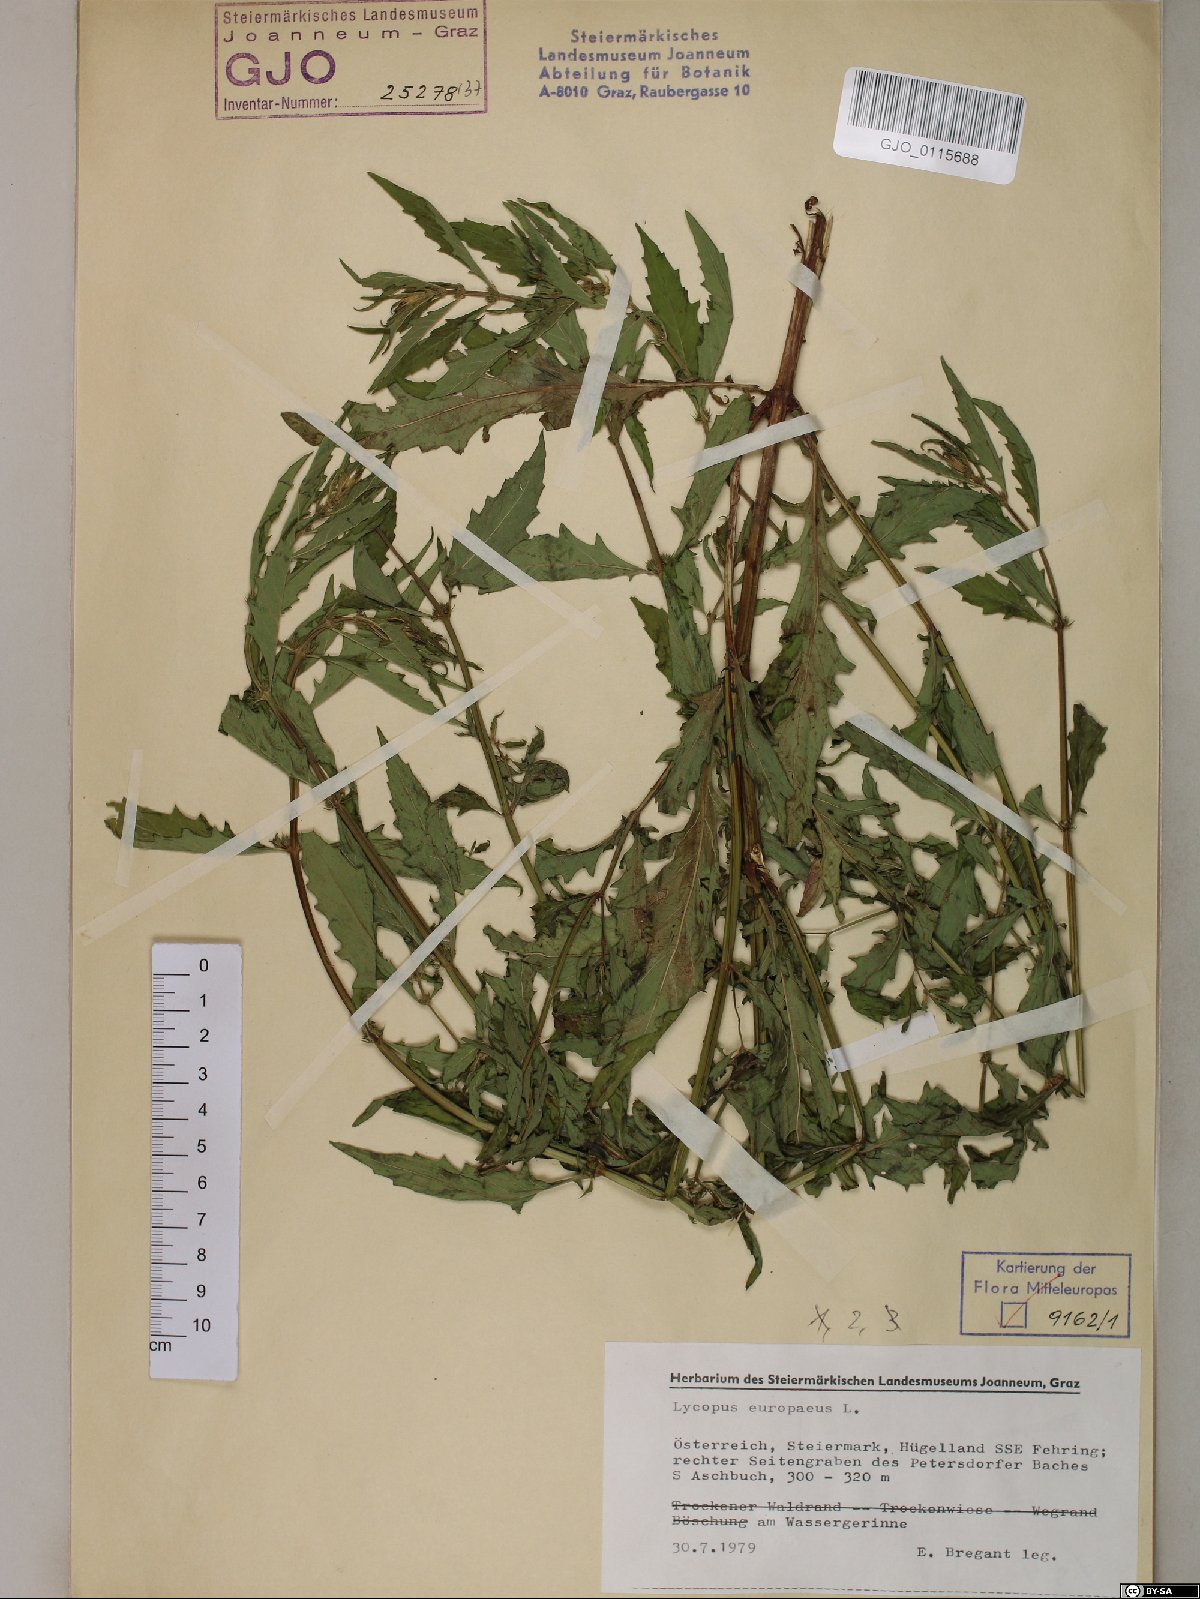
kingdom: Plantae
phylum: Tracheophyta
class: Magnoliopsida
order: Lamiales
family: Lamiaceae
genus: Lycopus
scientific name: Lycopus europaeus
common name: European bugleweed
